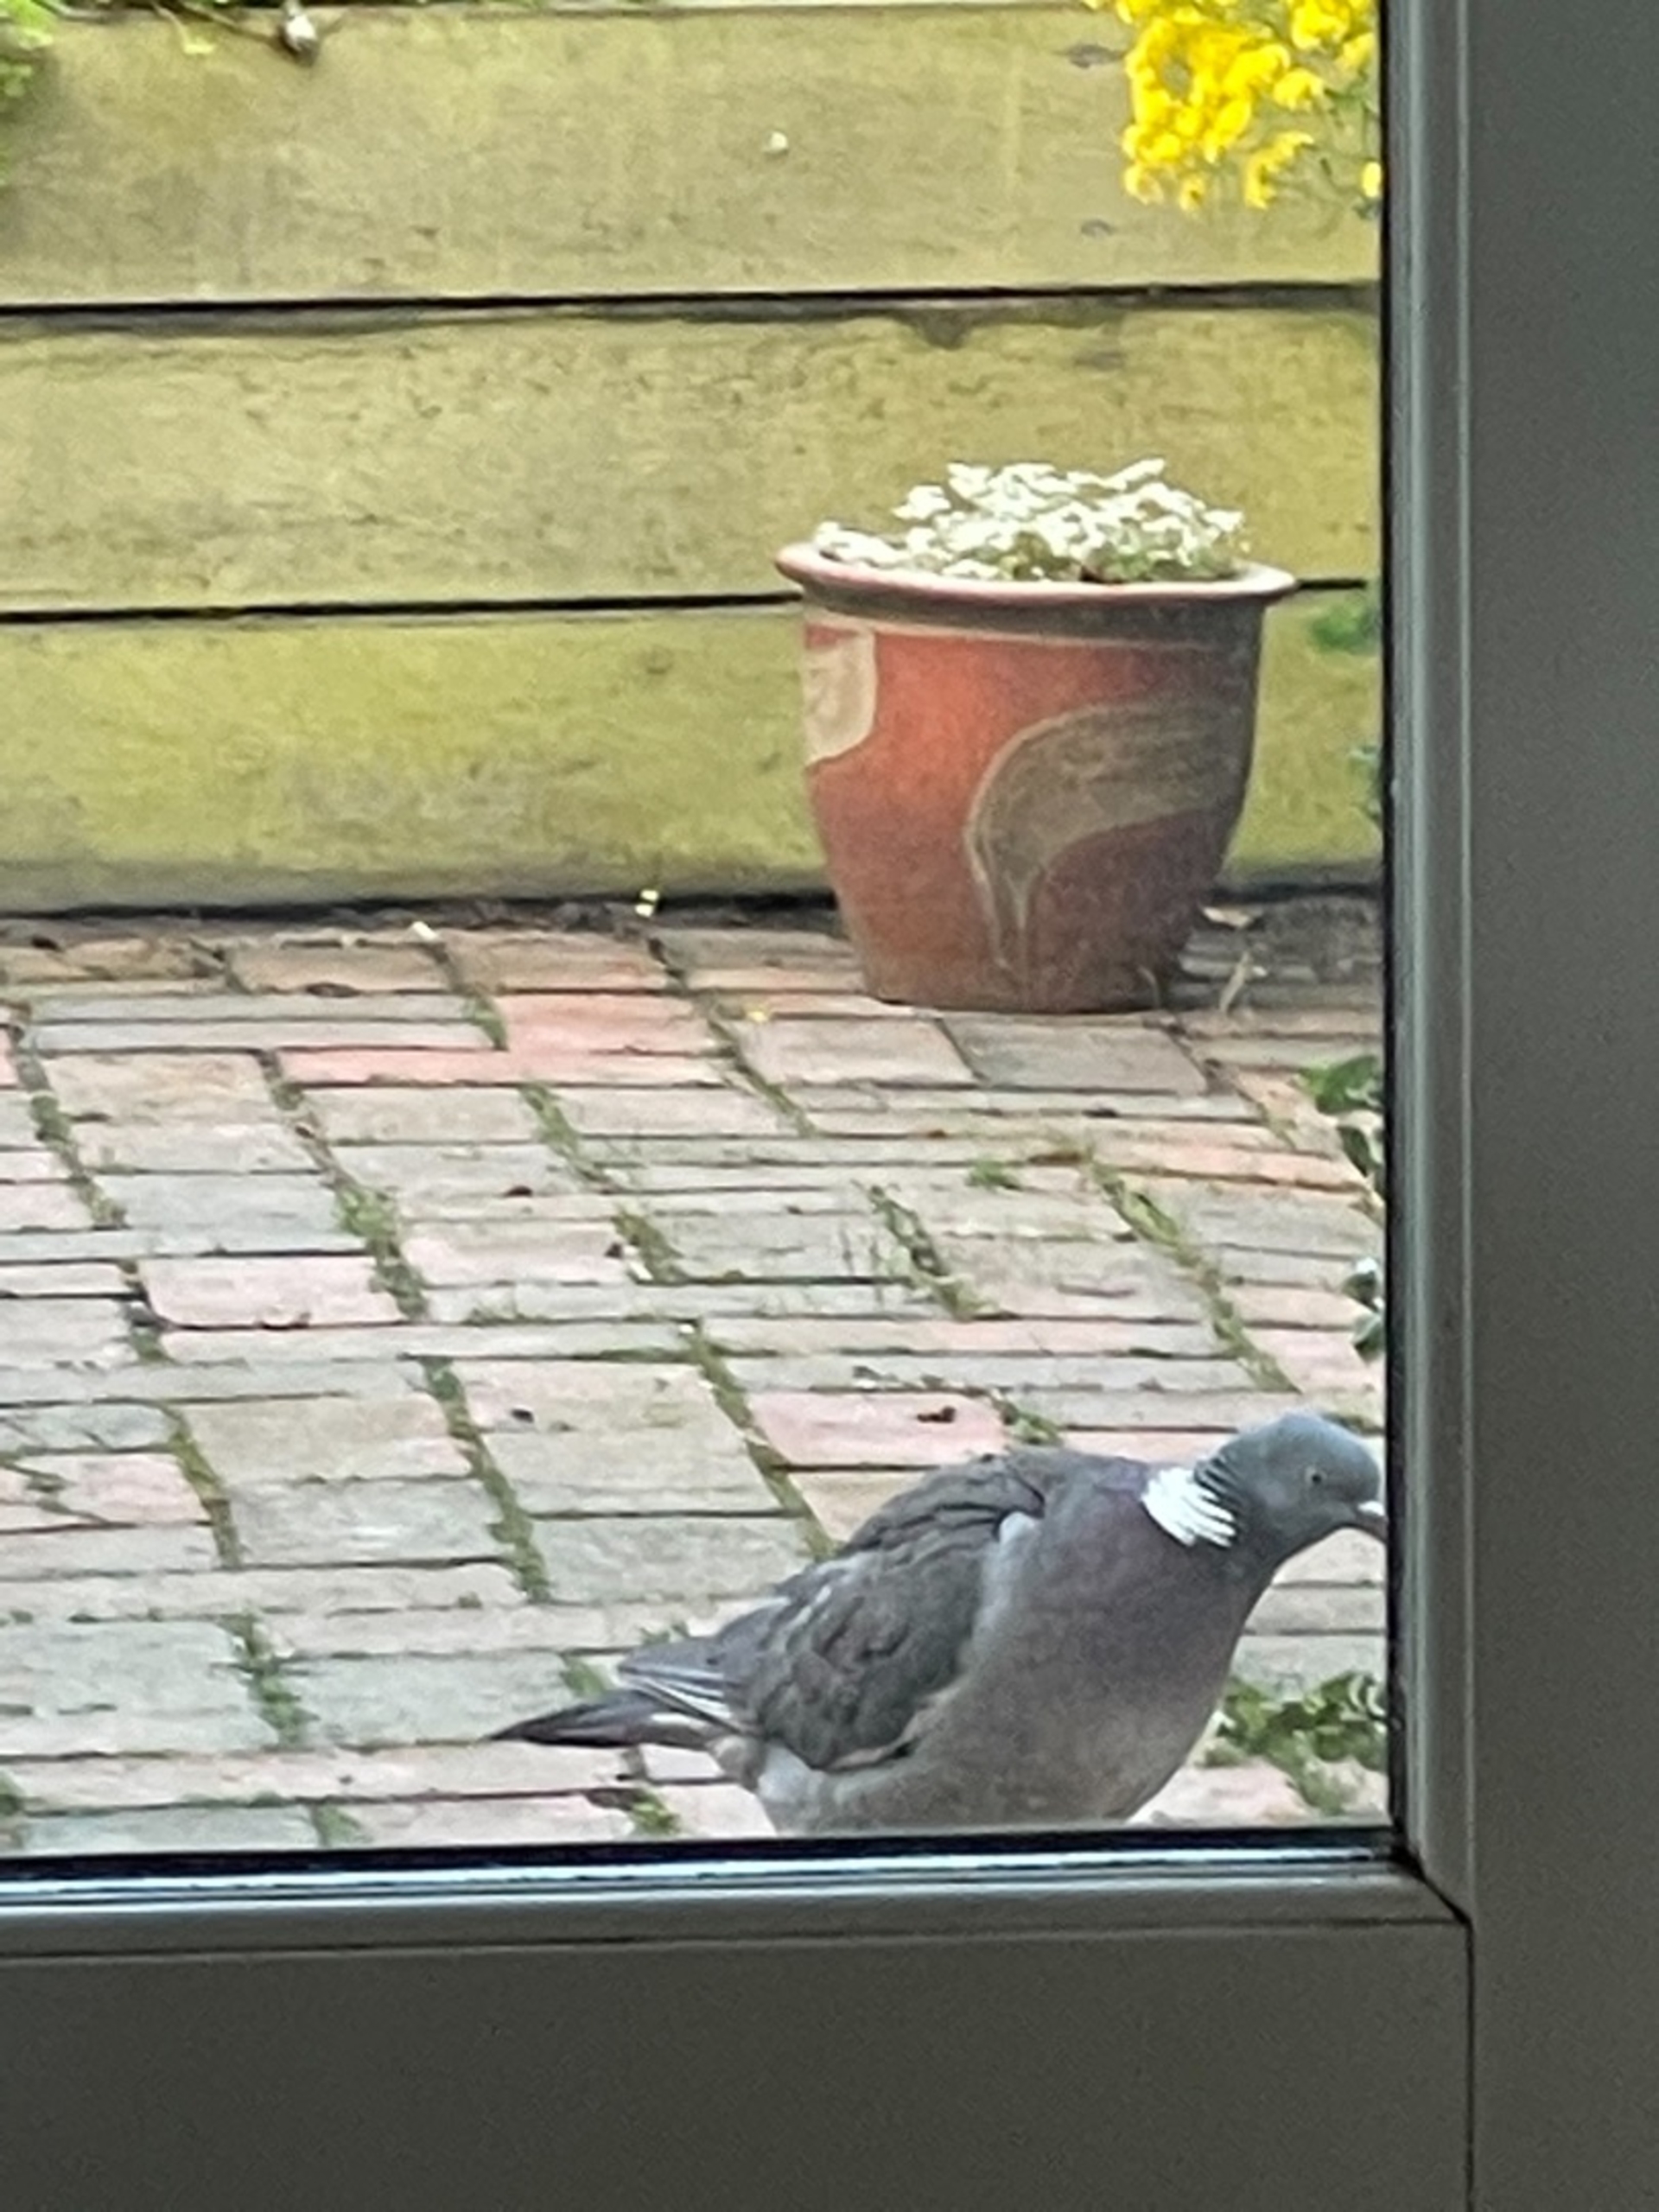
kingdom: Animalia
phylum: Chordata
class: Aves
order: Columbiformes
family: Columbidae
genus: Columba
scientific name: Columba palumbus
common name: Ringdue
